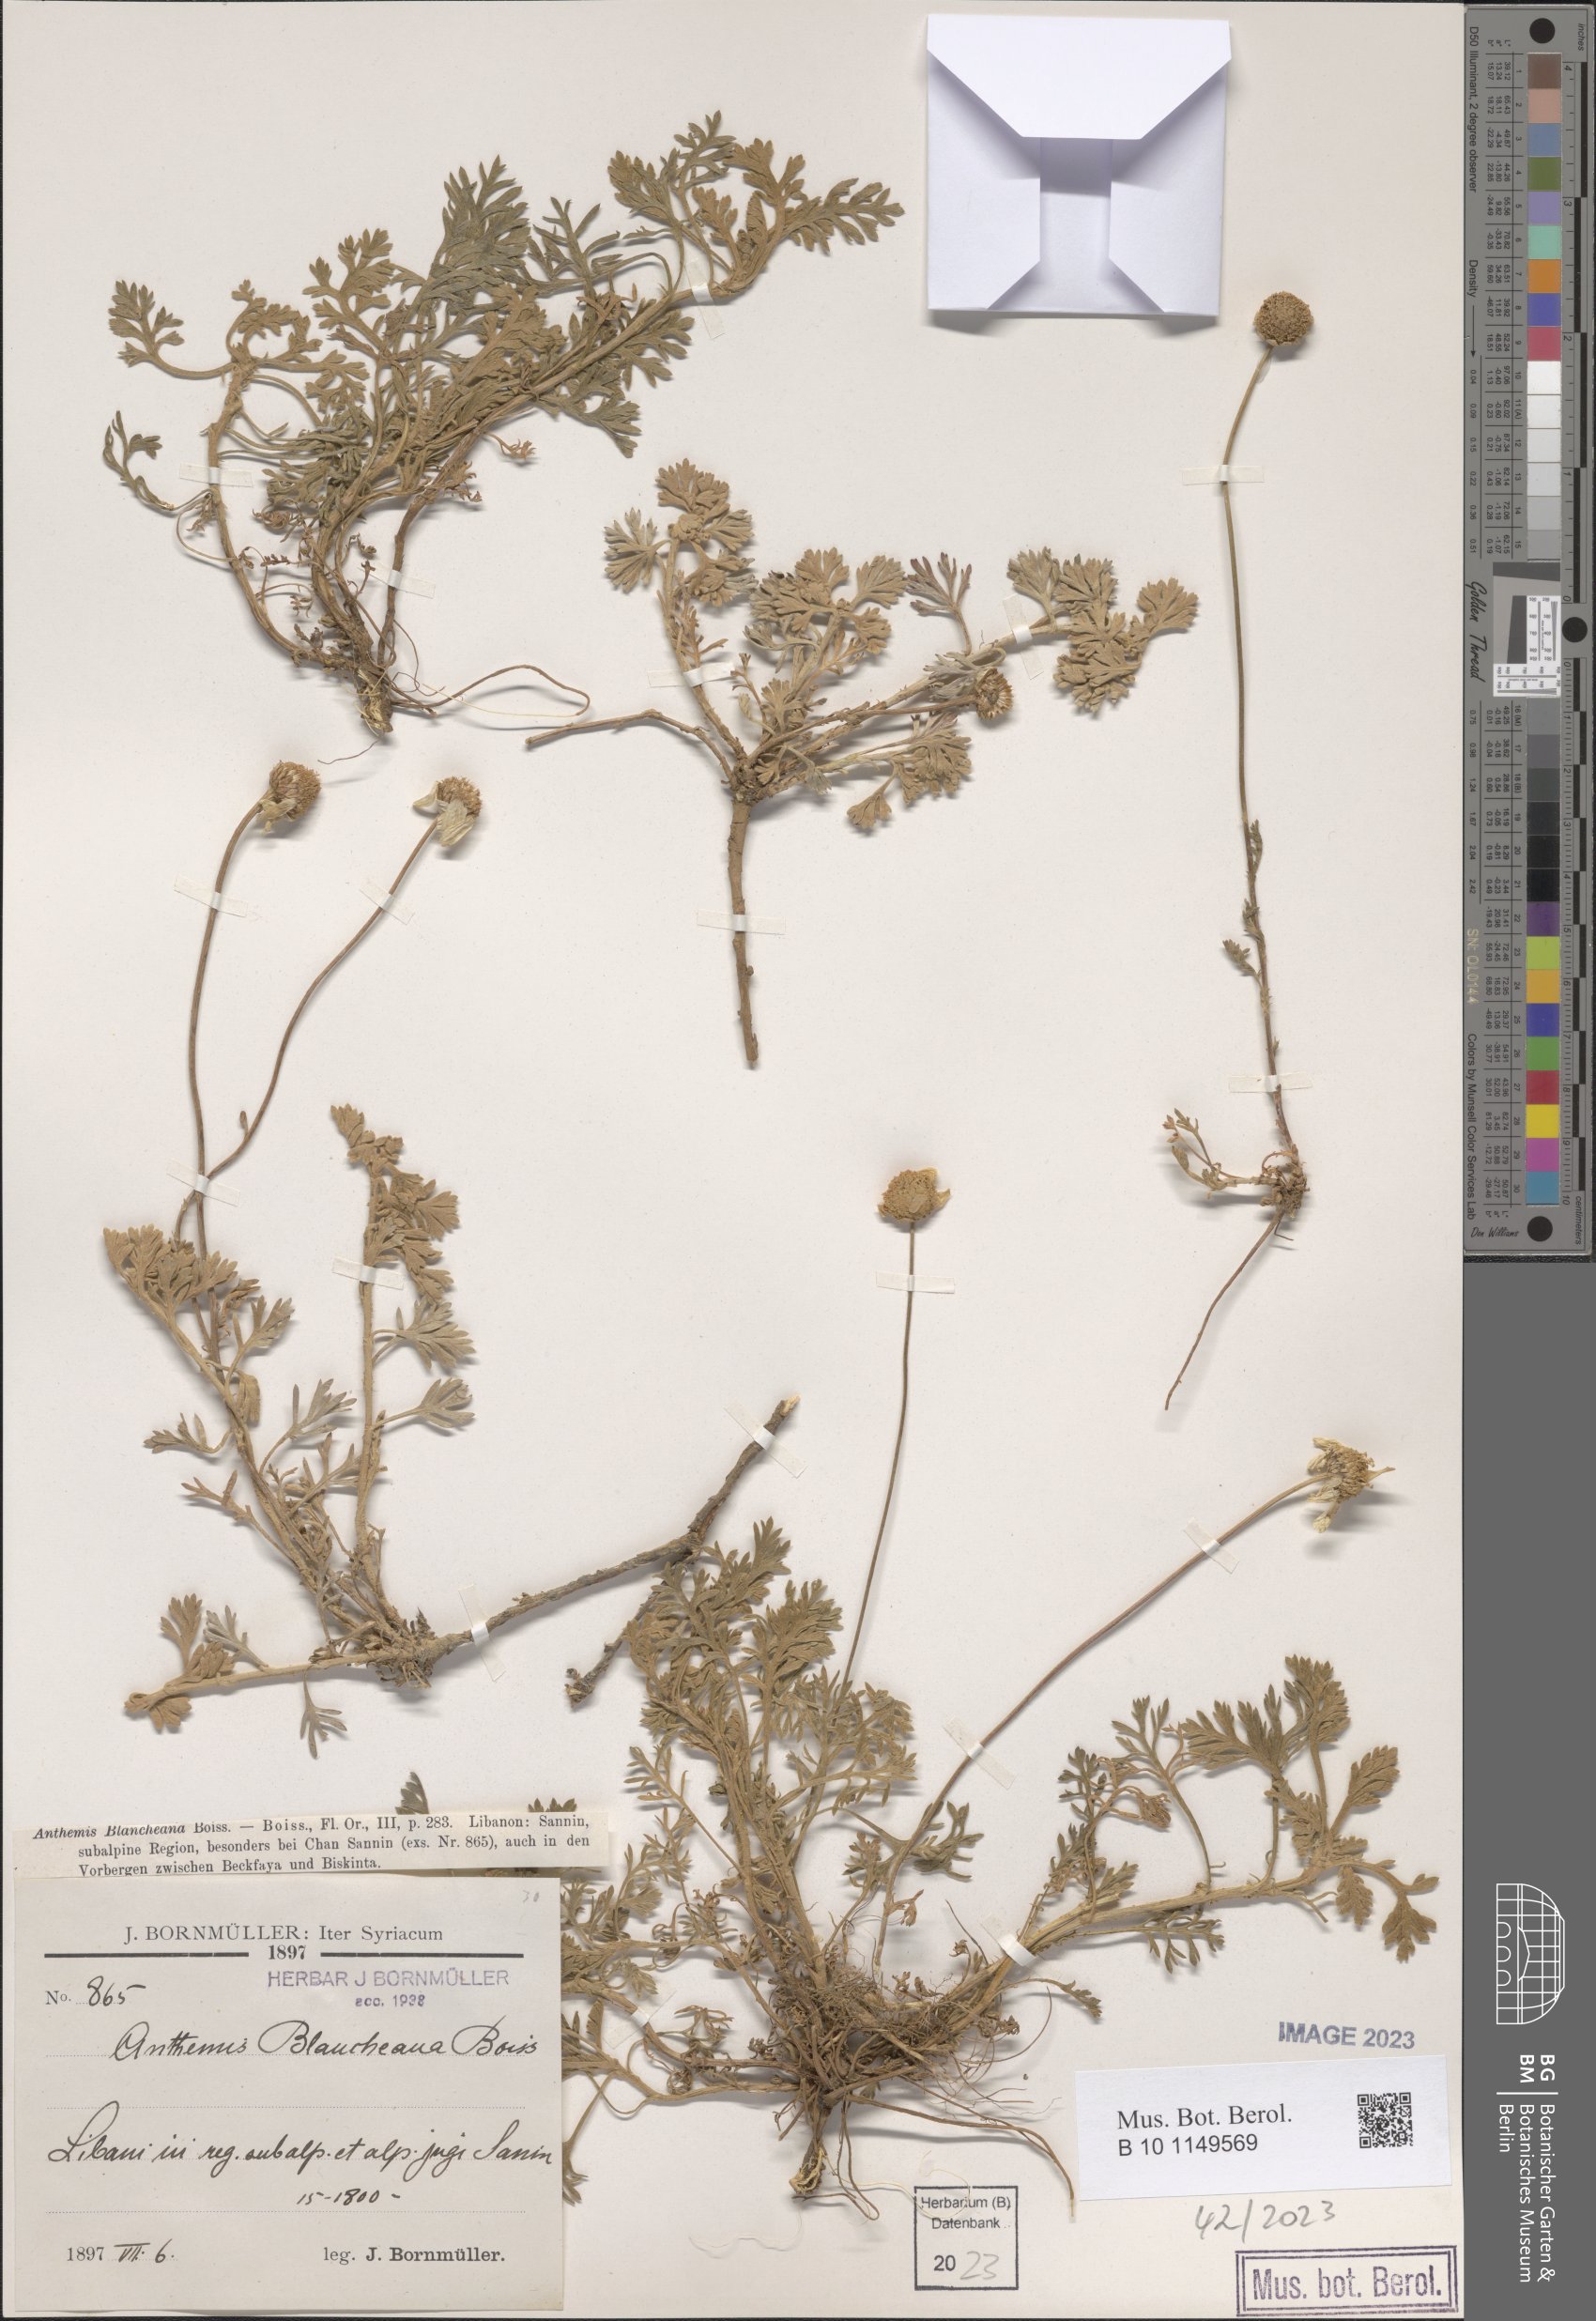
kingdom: Plantae
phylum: Tracheophyta
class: Magnoliopsida
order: Asterales
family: Asteraceae
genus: Anthemis
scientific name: Anthemis cretica
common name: Mountain dog-daisy
